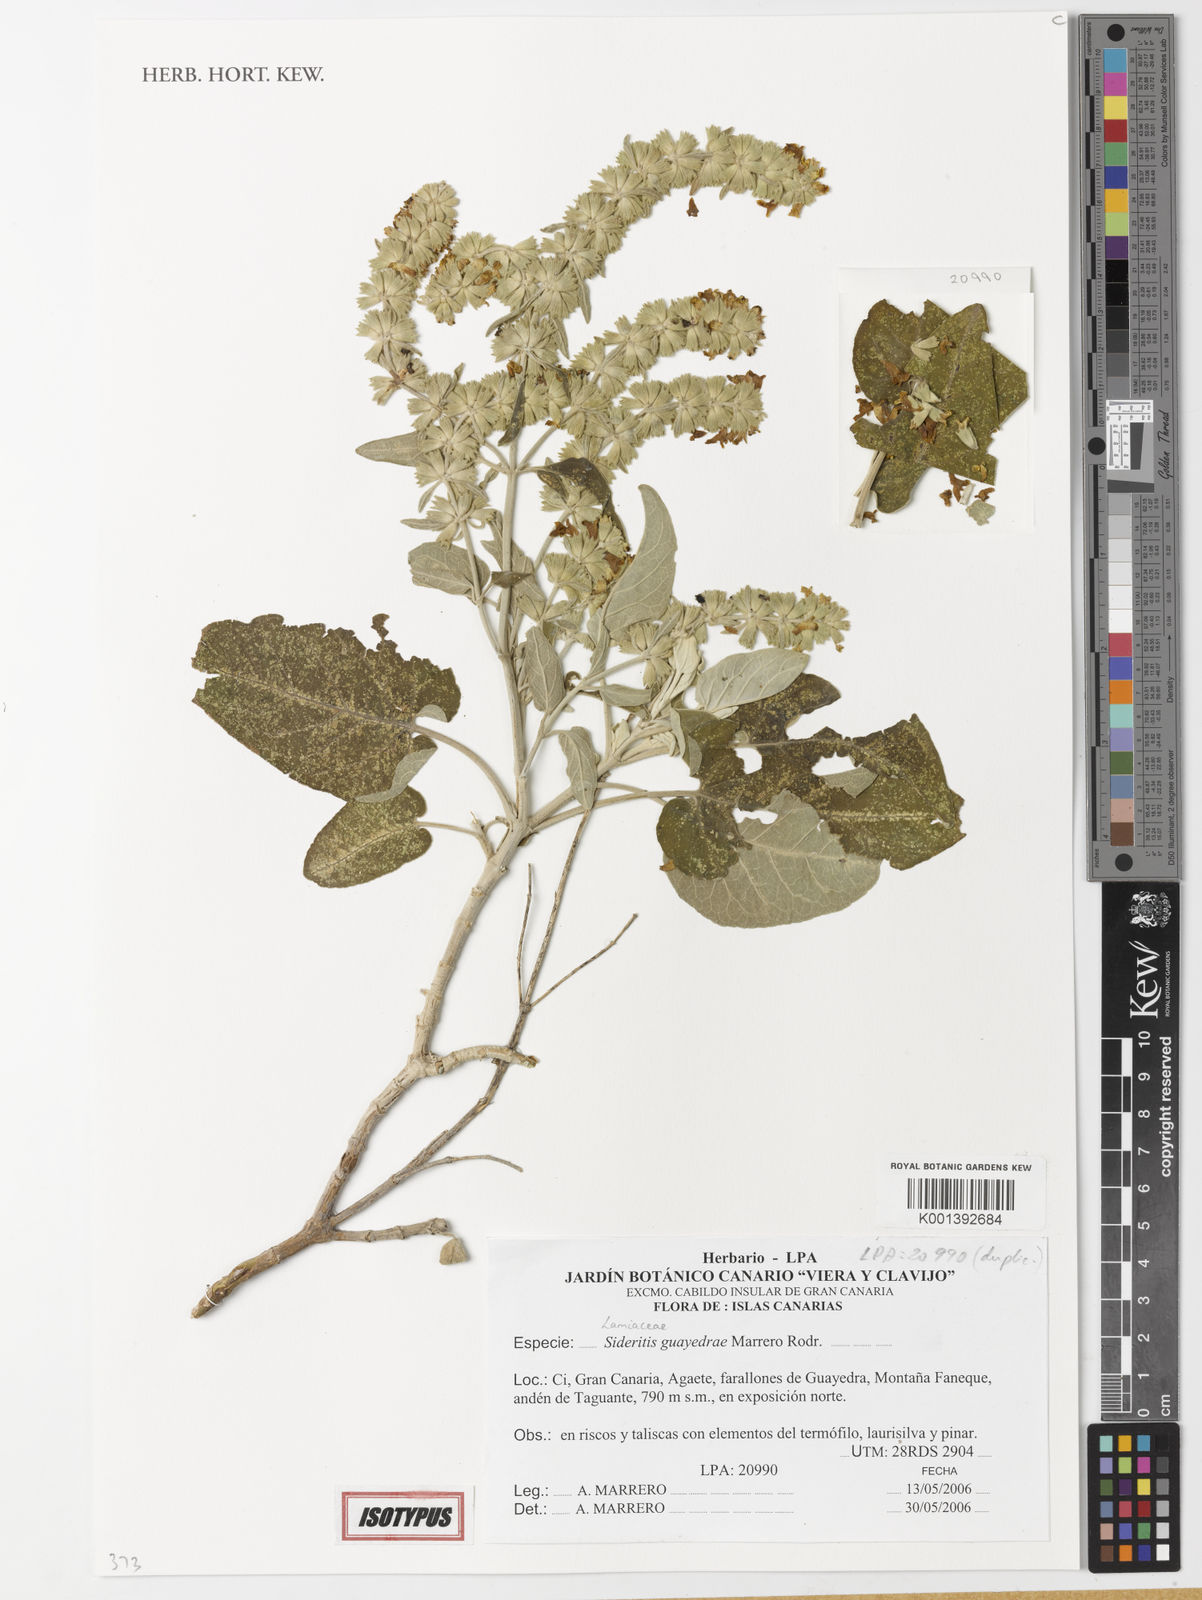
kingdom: Plantae
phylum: Tracheophyta
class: Magnoliopsida
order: Lamiales
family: Lamiaceae
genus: Sideritis
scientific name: Sideritis guayedrae
